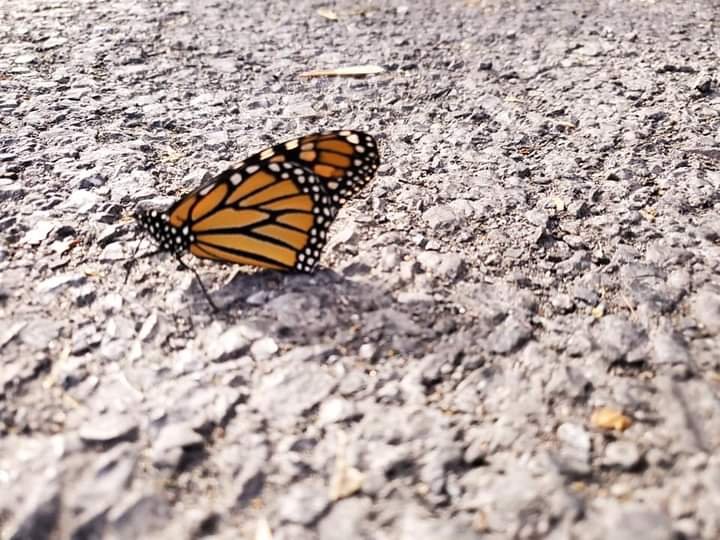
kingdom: Animalia
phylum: Arthropoda
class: Insecta
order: Lepidoptera
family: Nymphalidae
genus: Danaus
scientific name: Danaus plexippus
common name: Monarch
